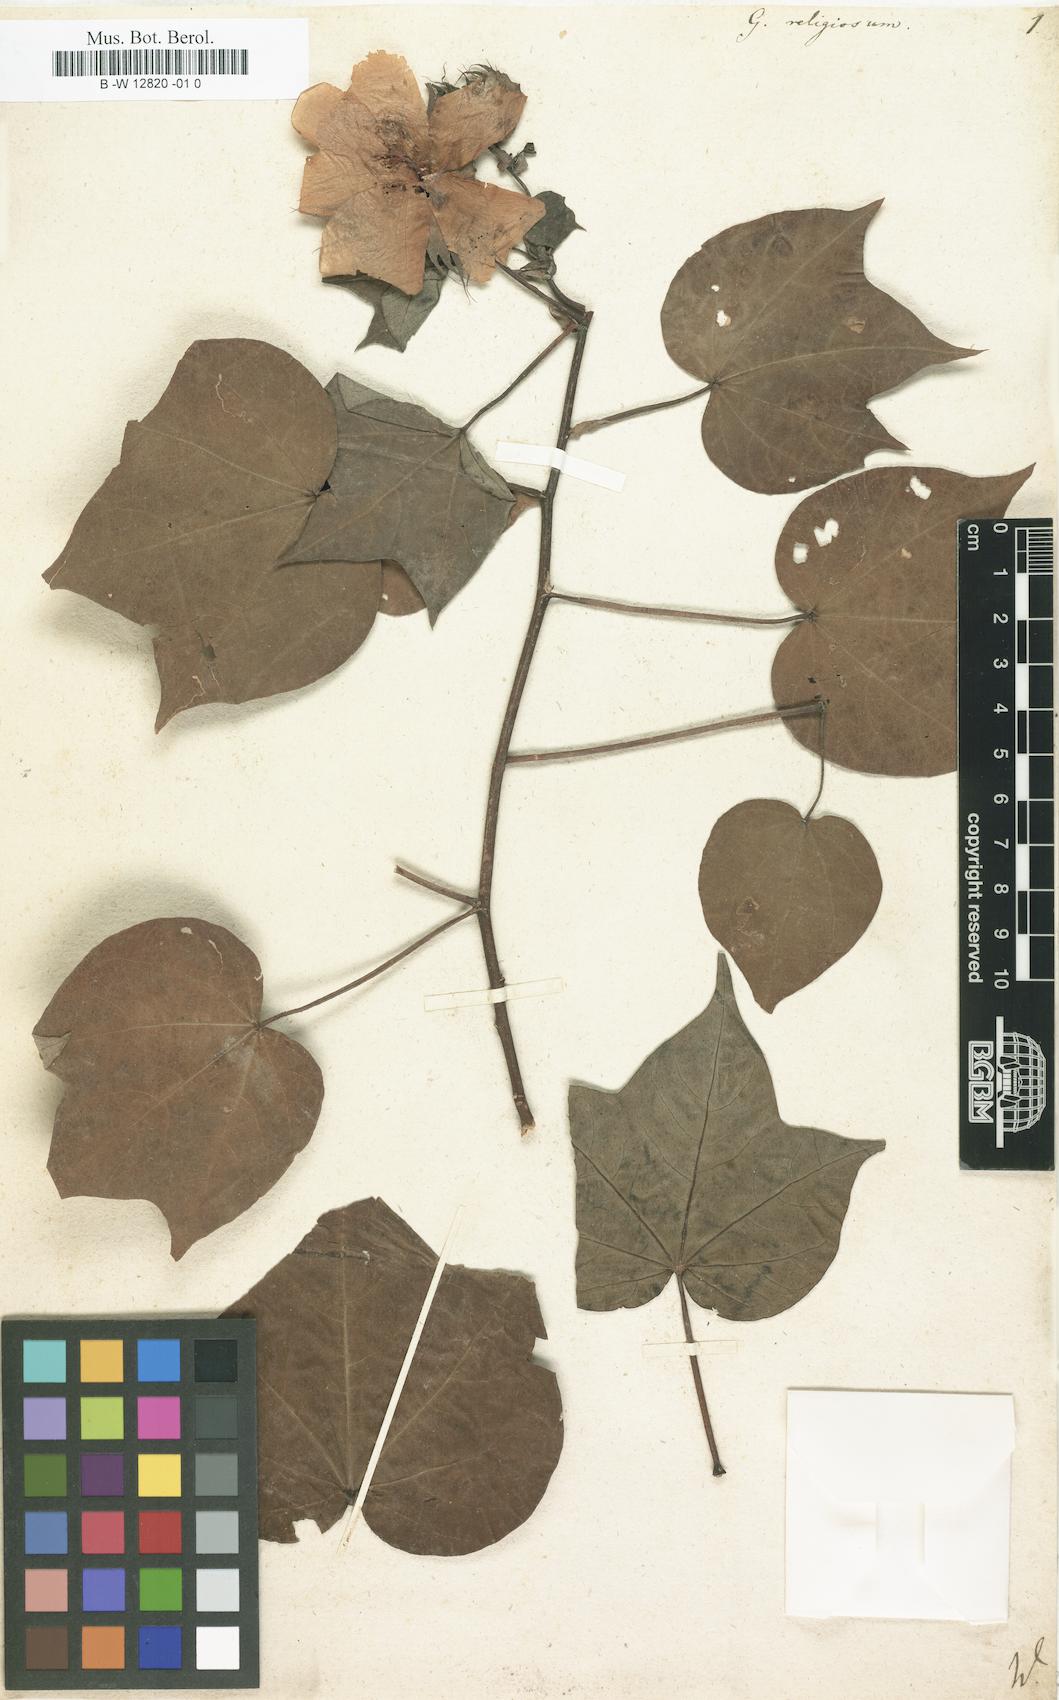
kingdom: Plantae
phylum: Tracheophyta
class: Magnoliopsida
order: Malvales
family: Malvaceae
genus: Gossypium
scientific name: Gossypium
